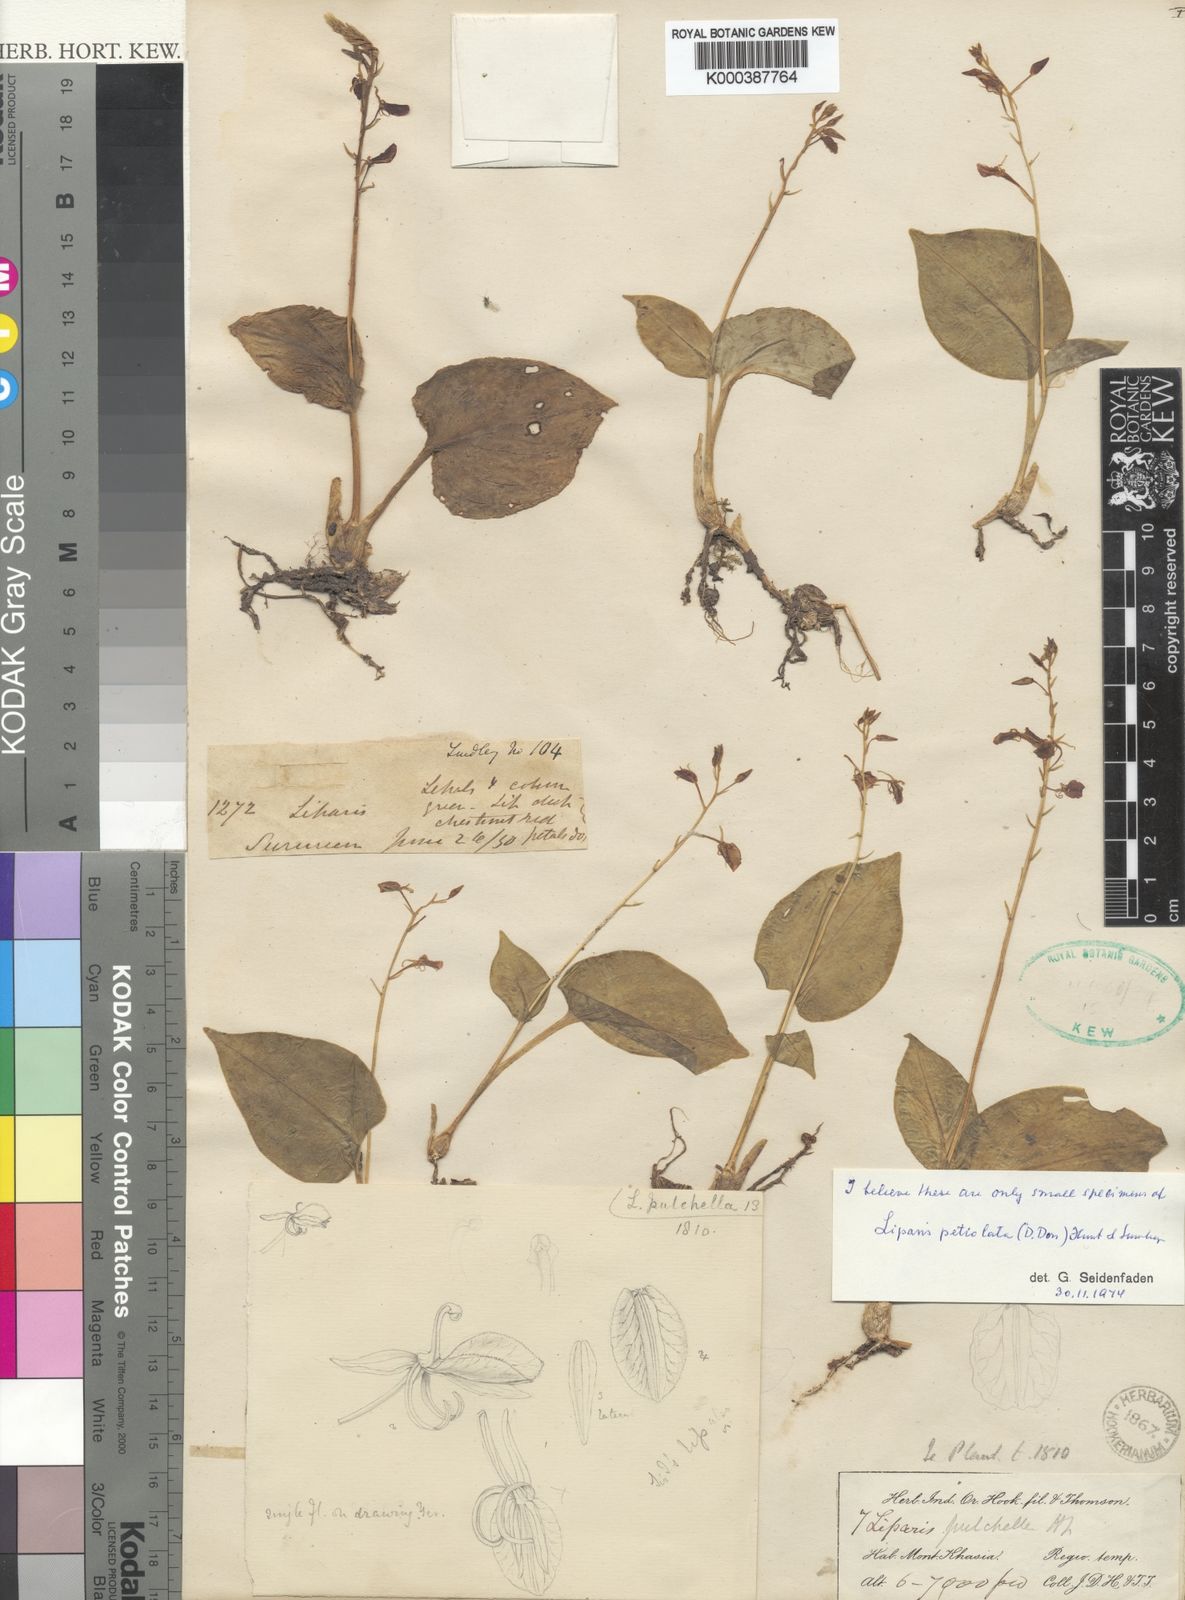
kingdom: Plantae
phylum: Tracheophyta
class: Liliopsida
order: Asparagales
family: Orchidaceae
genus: Liparis
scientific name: Liparis petiolata
